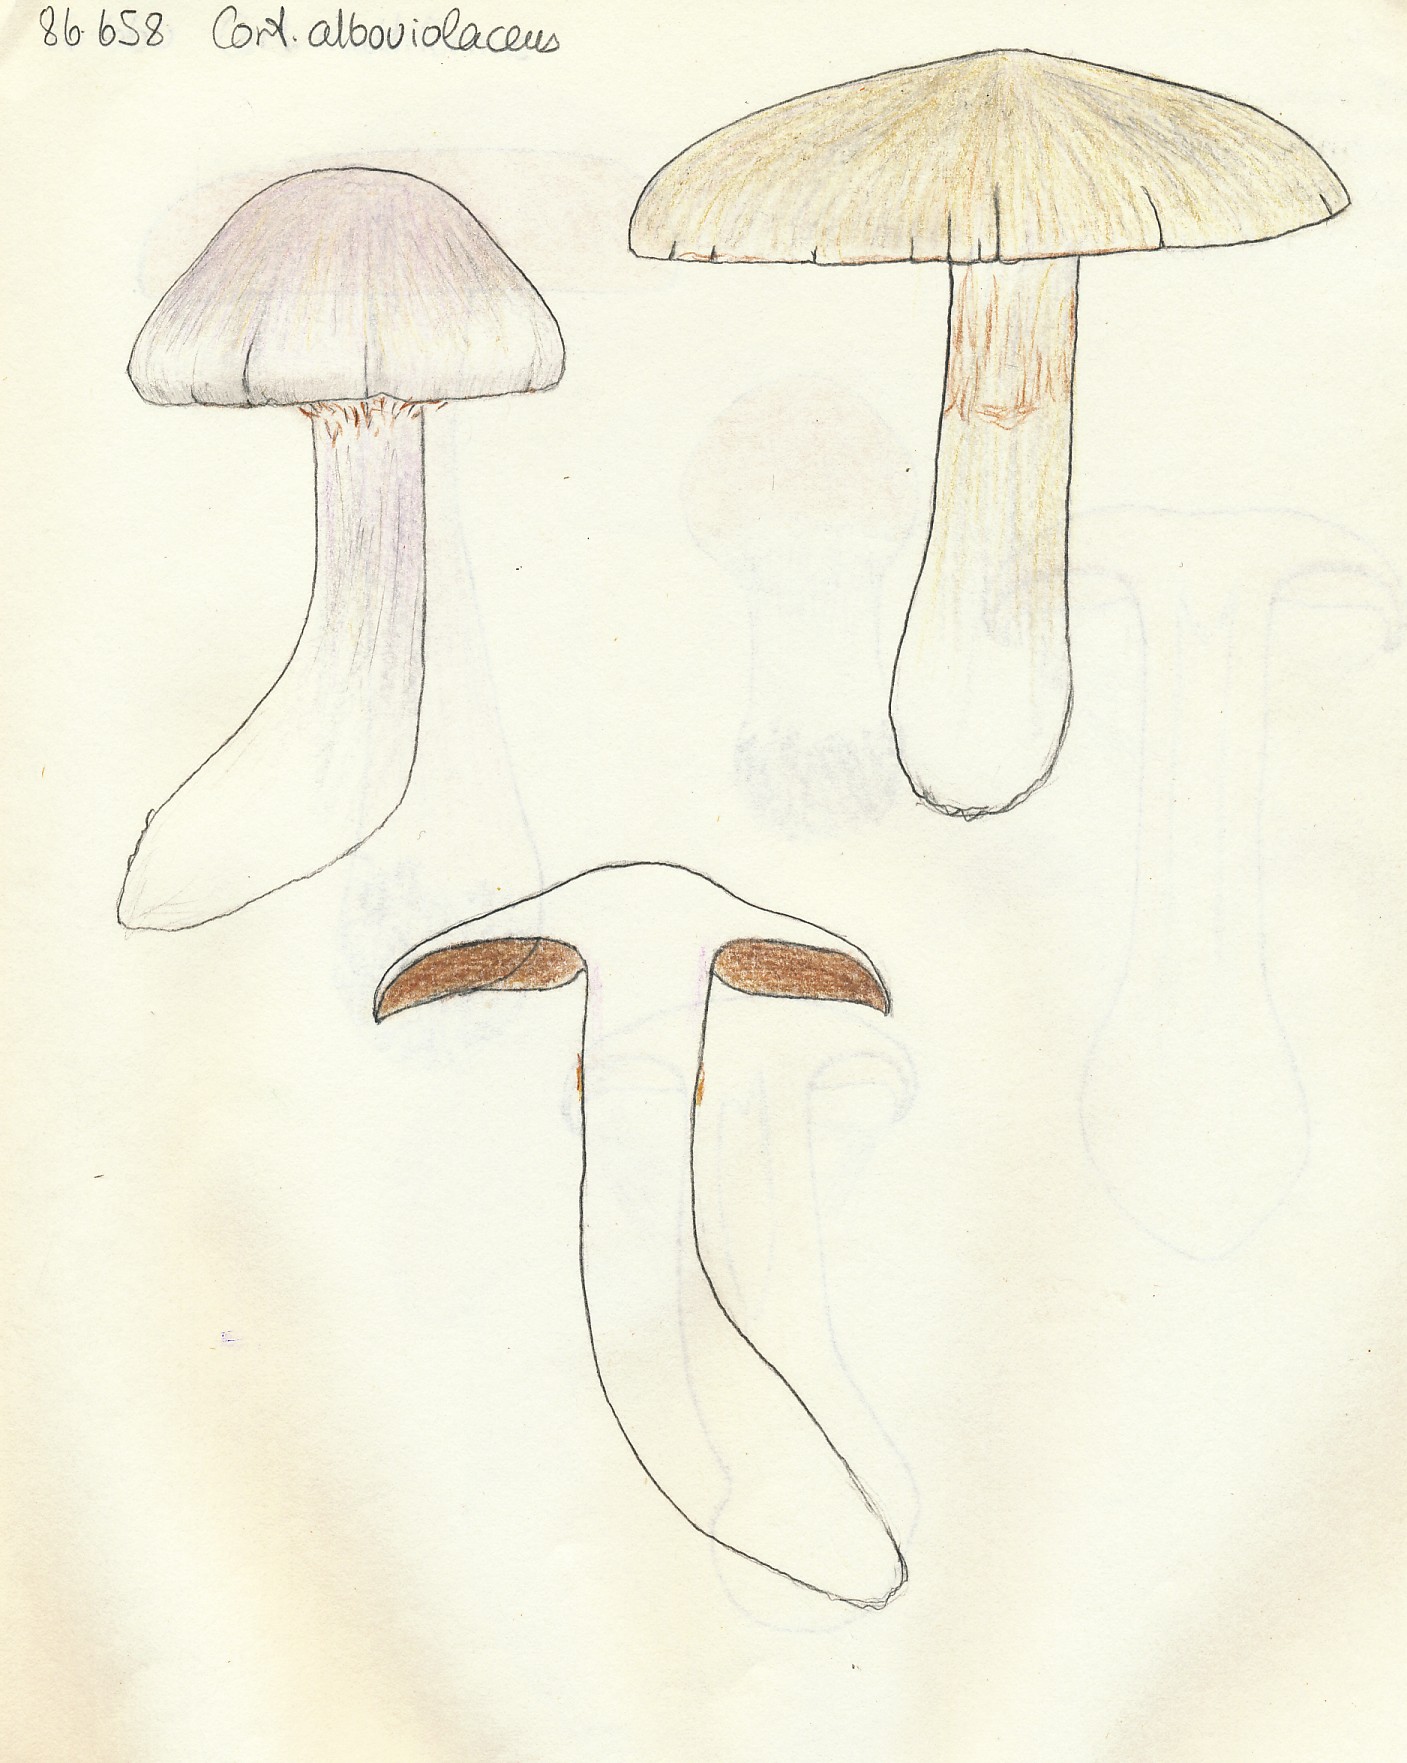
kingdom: Fungi
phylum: Basidiomycota
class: Agaricomycetes
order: Agaricales
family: Cortinariaceae
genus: Cortinarius
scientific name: Cortinarius alboviolaceus
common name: lysviolet slørhat
